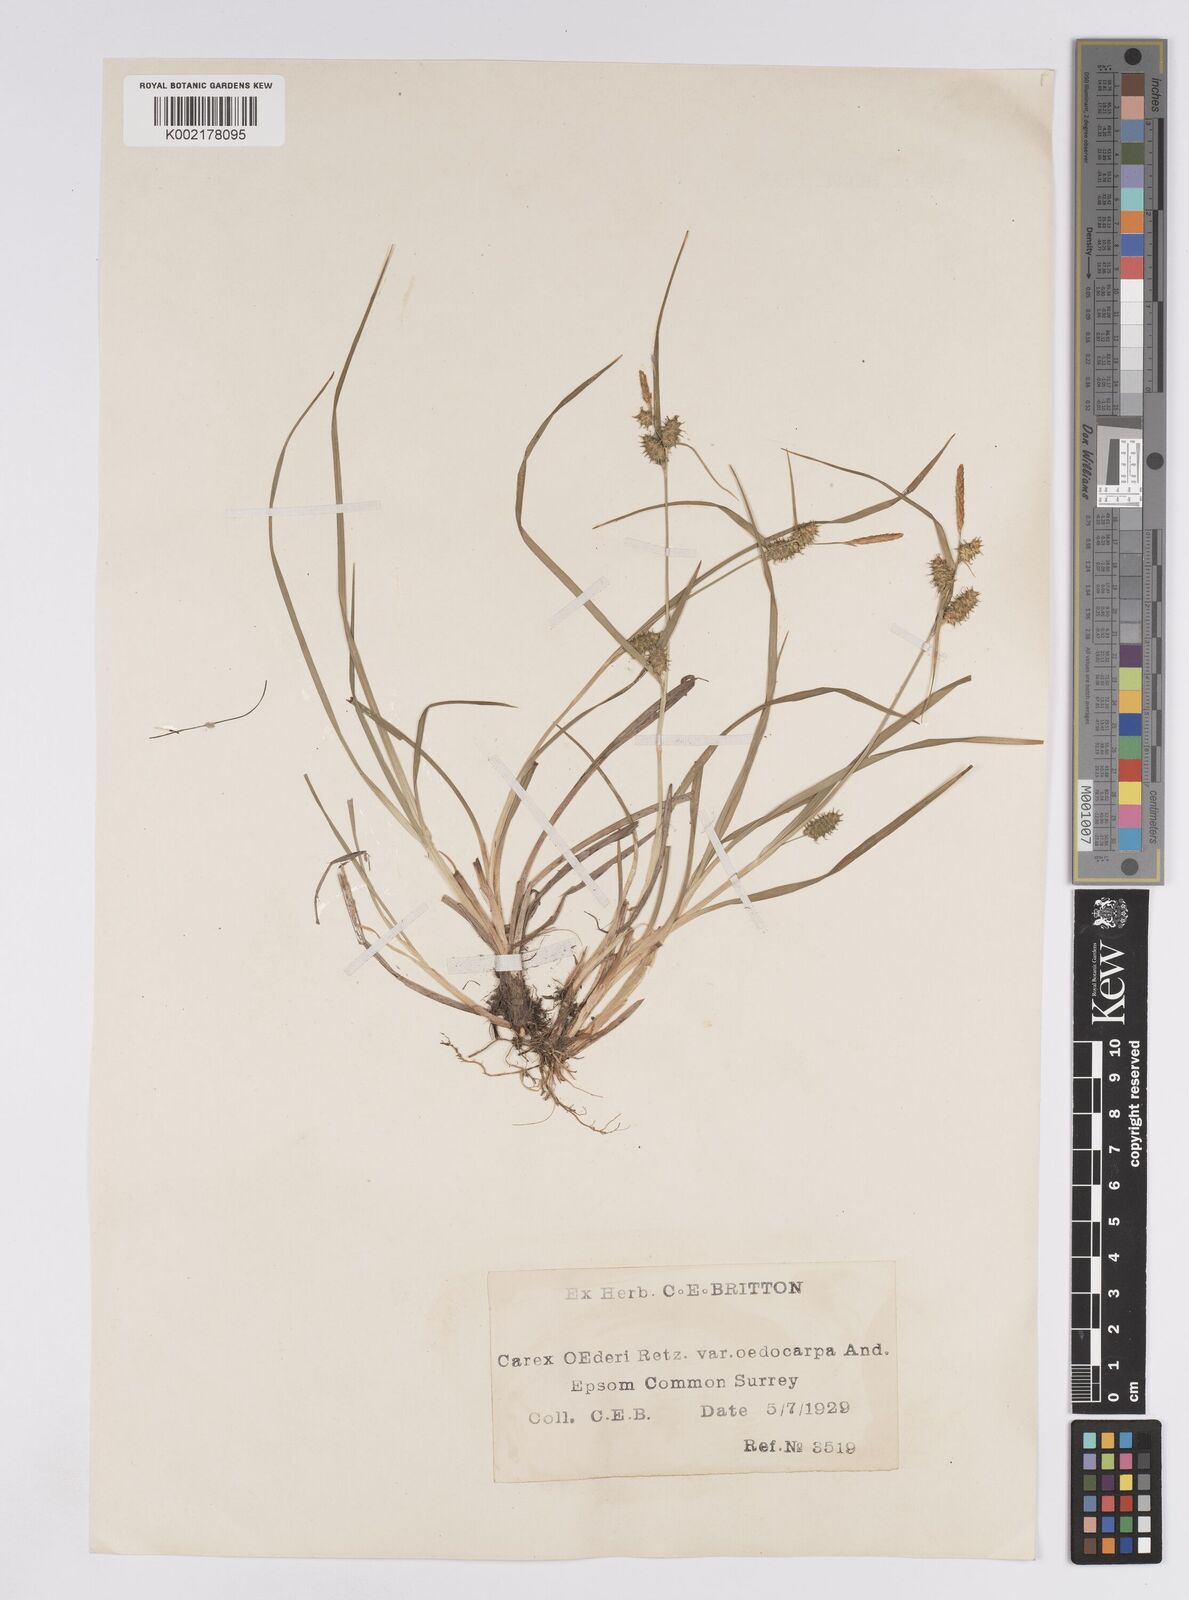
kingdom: Plantae
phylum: Tracheophyta
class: Liliopsida
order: Poales
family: Cyperaceae
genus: Carex
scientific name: Carex demissa
